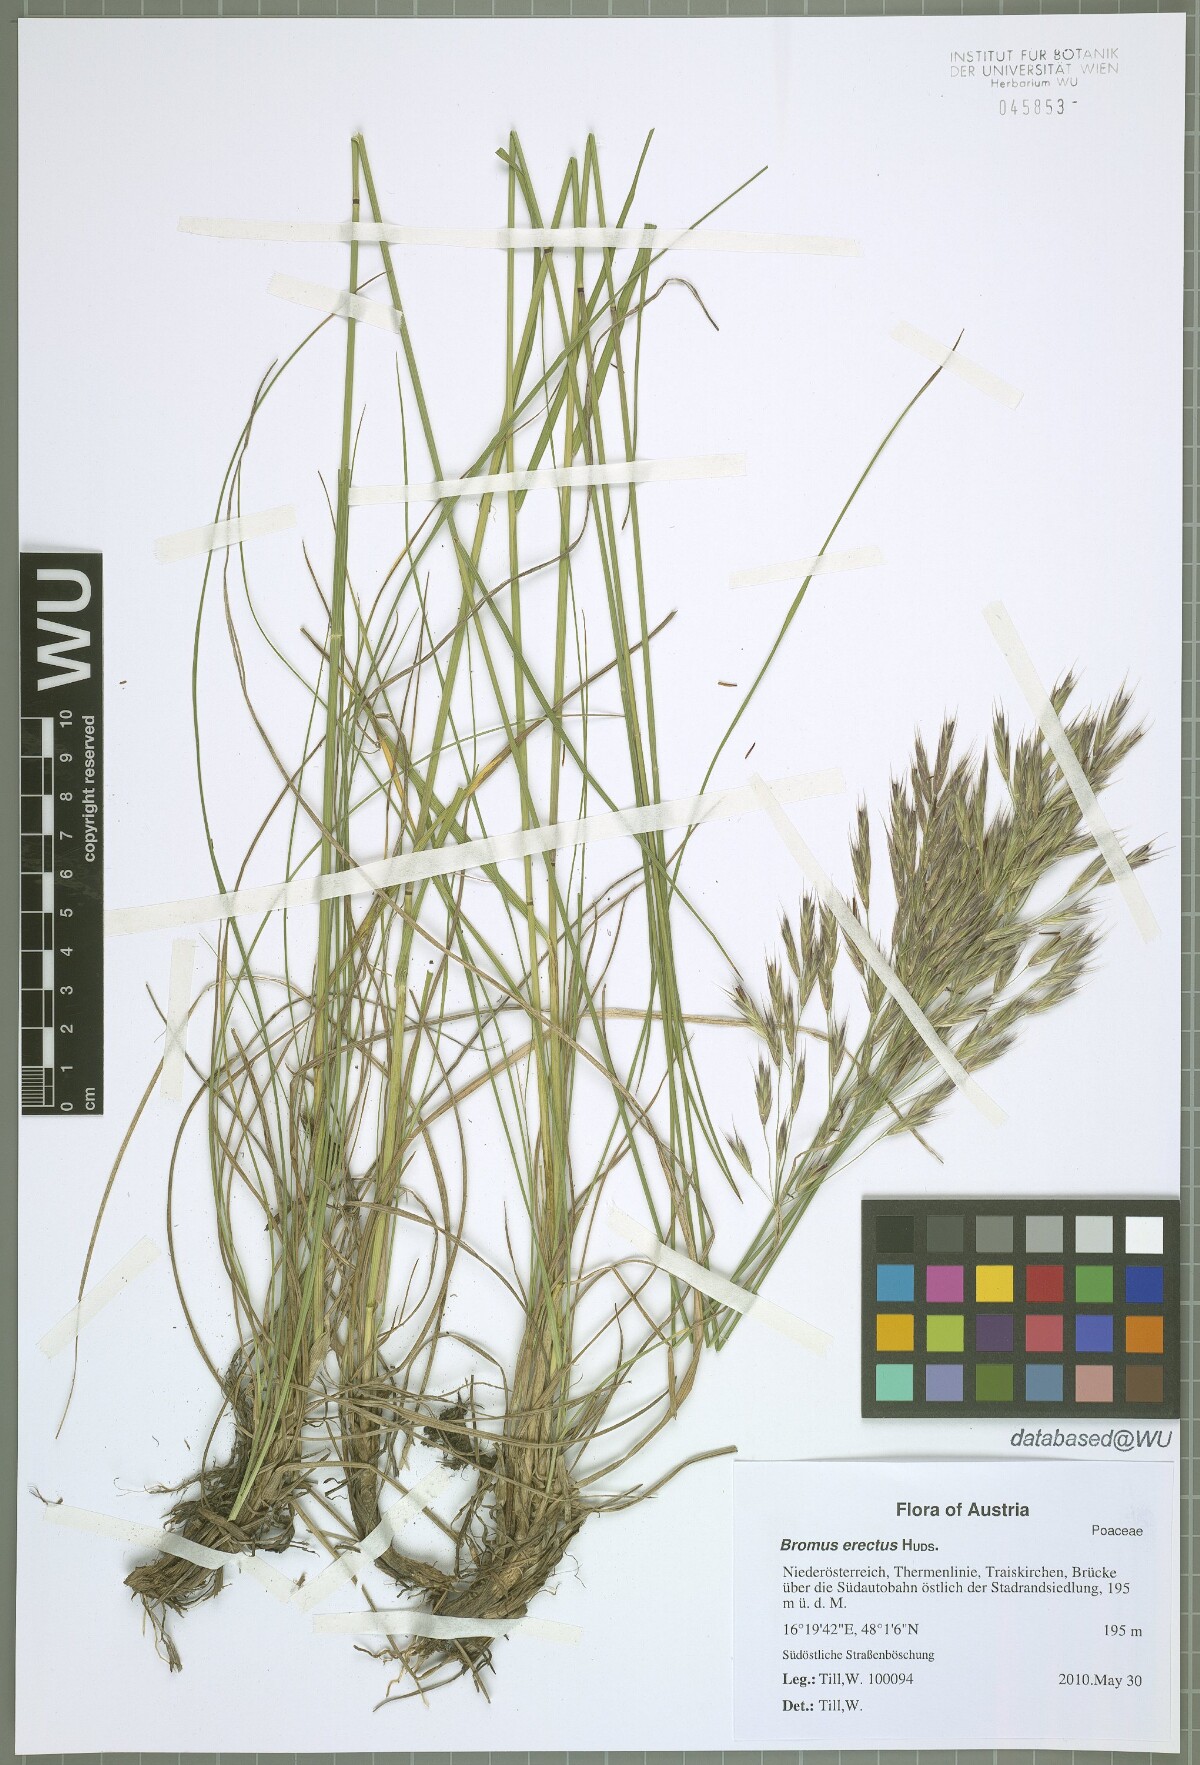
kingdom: Plantae
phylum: Tracheophyta
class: Liliopsida
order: Poales
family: Poaceae
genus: Bromus
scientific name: Bromus erectus
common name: Erect brome
